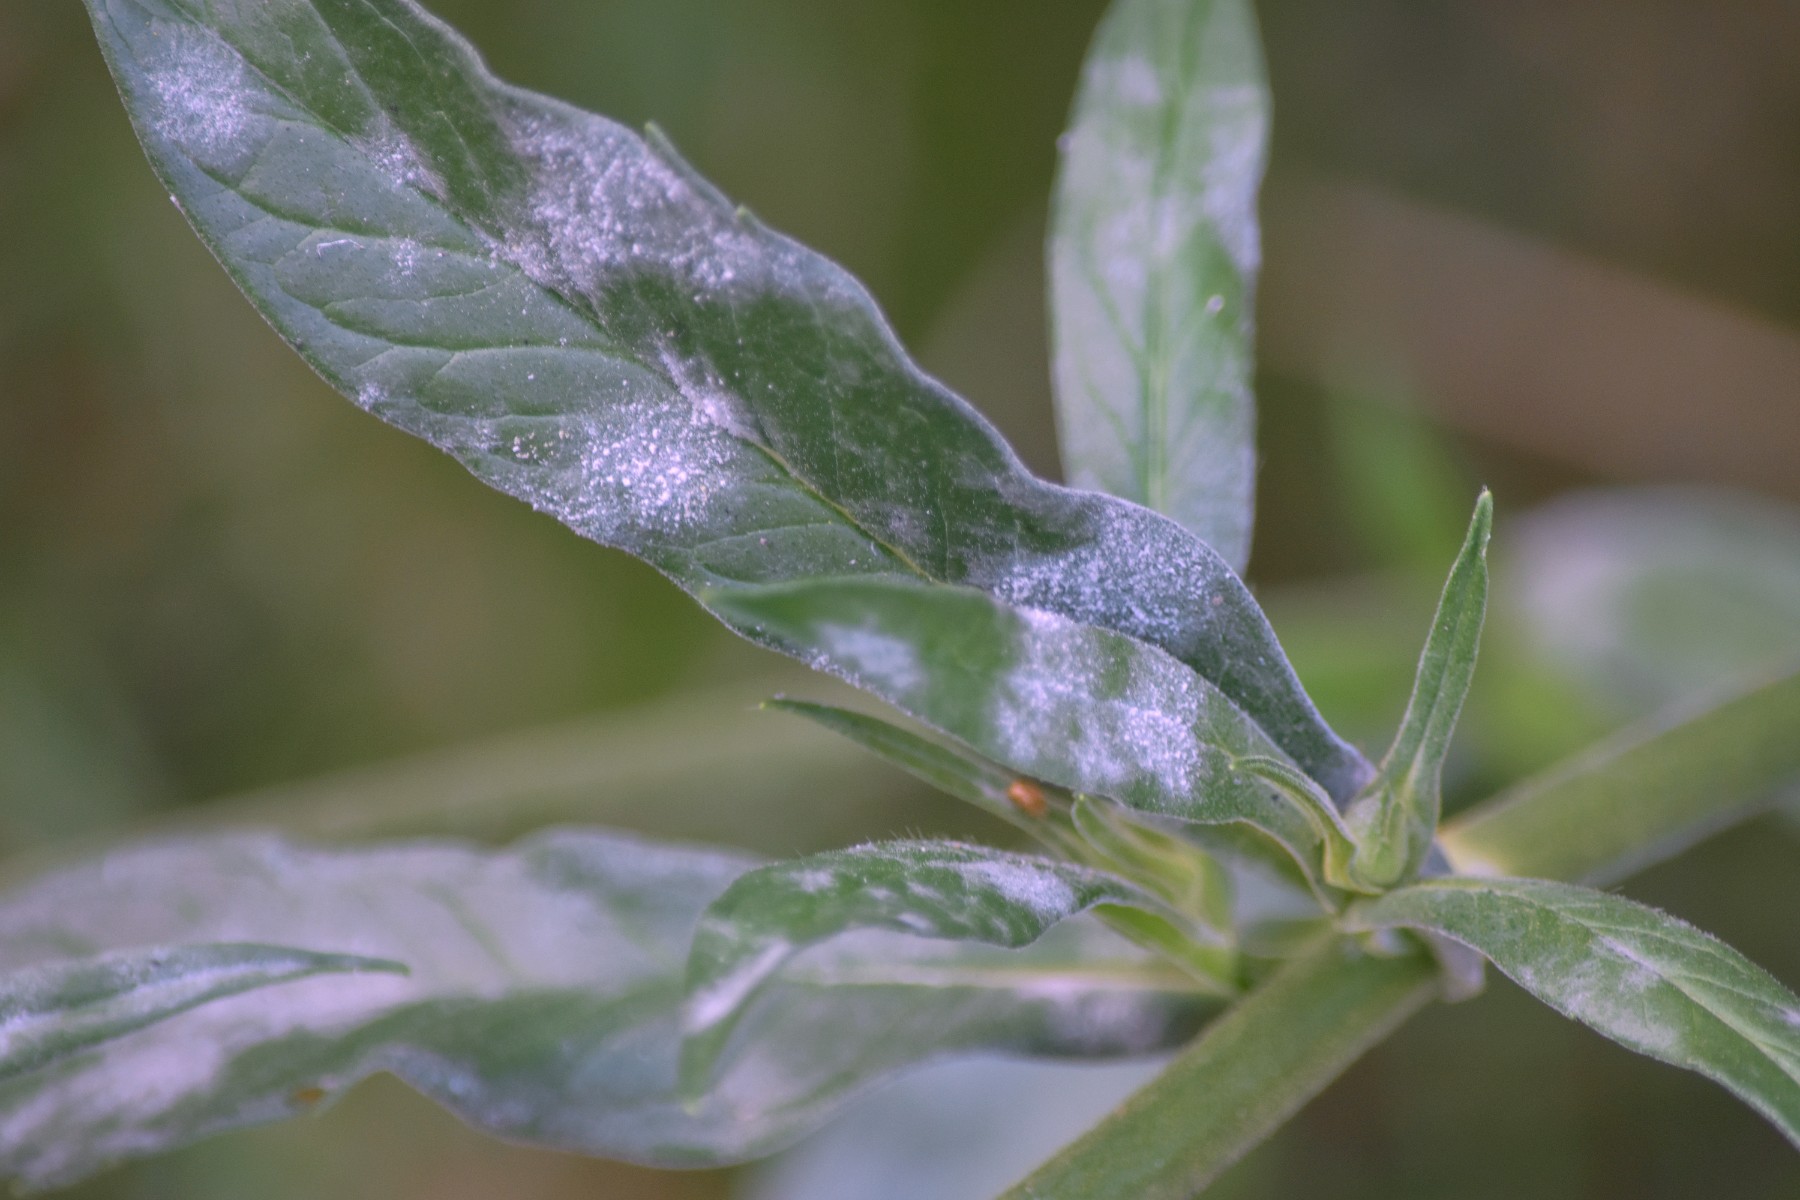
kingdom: Fungi
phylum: Ascomycota
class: Leotiomycetes
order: Helotiales
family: Erysiphaceae
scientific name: Erysiphaceae
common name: meldugfamilien
